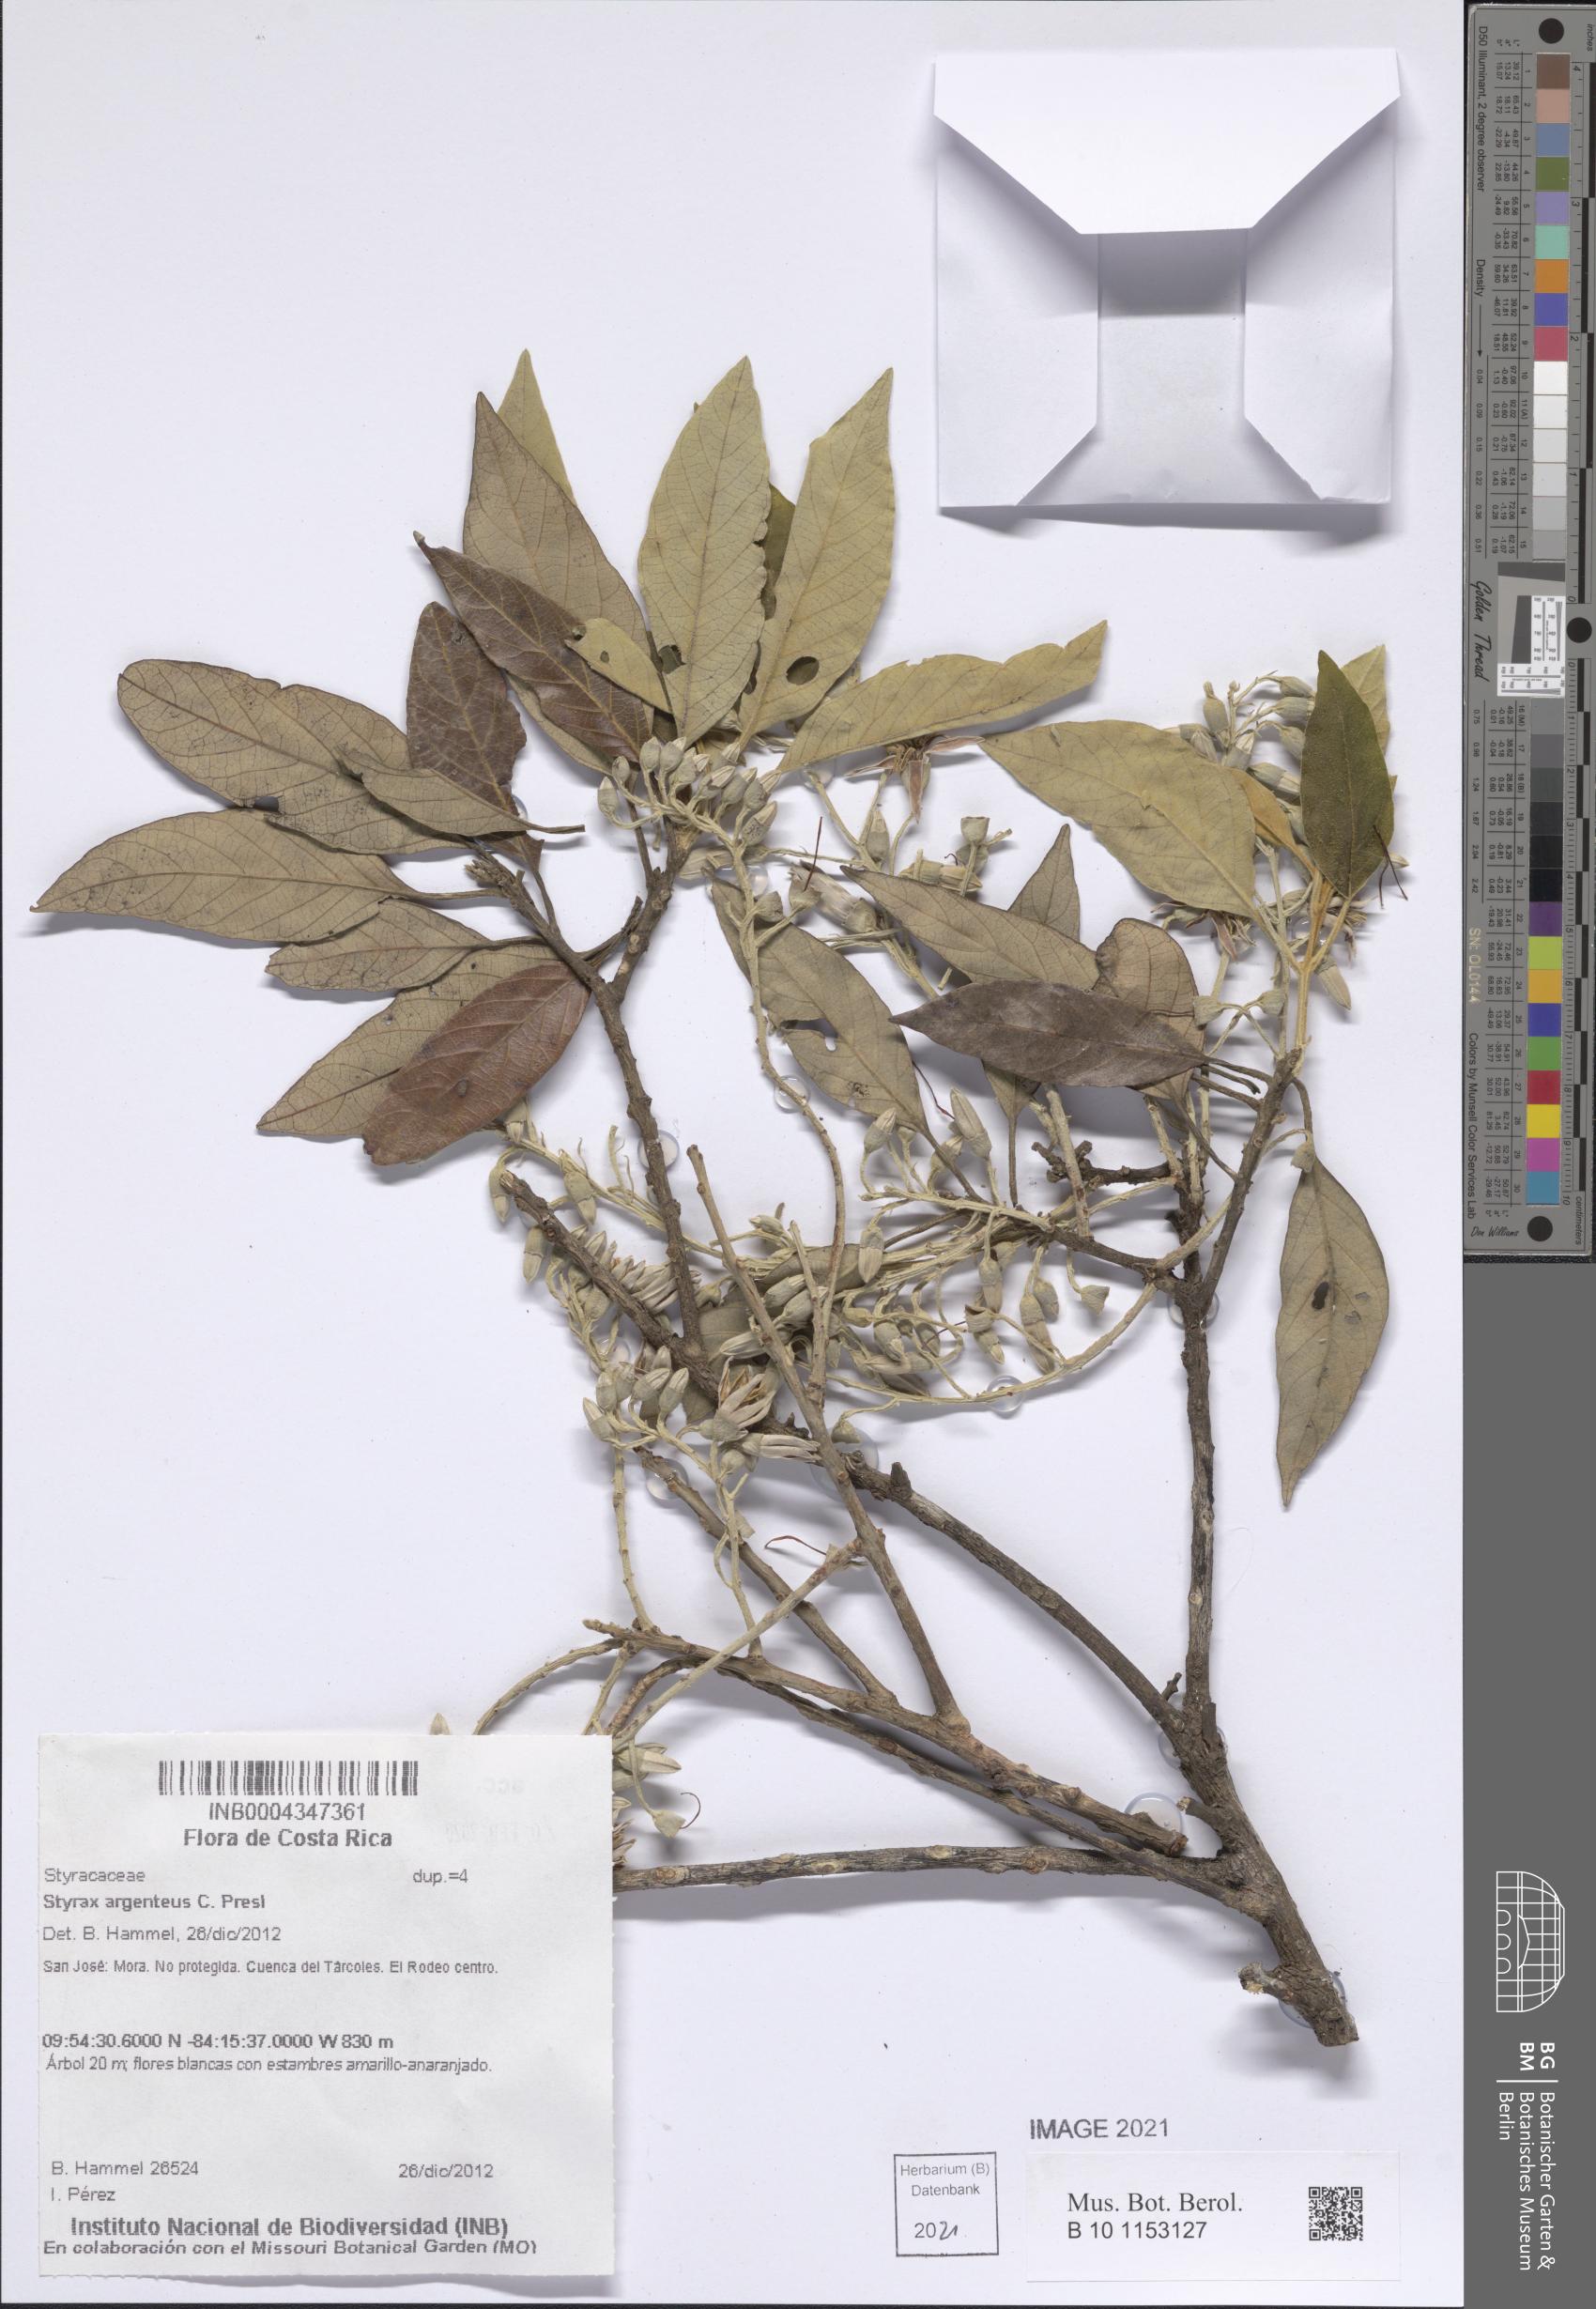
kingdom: Plantae
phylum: Tracheophyta
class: Magnoliopsida
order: Ericales
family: Styracaceae
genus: Styrax
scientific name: Styrax argenteus
